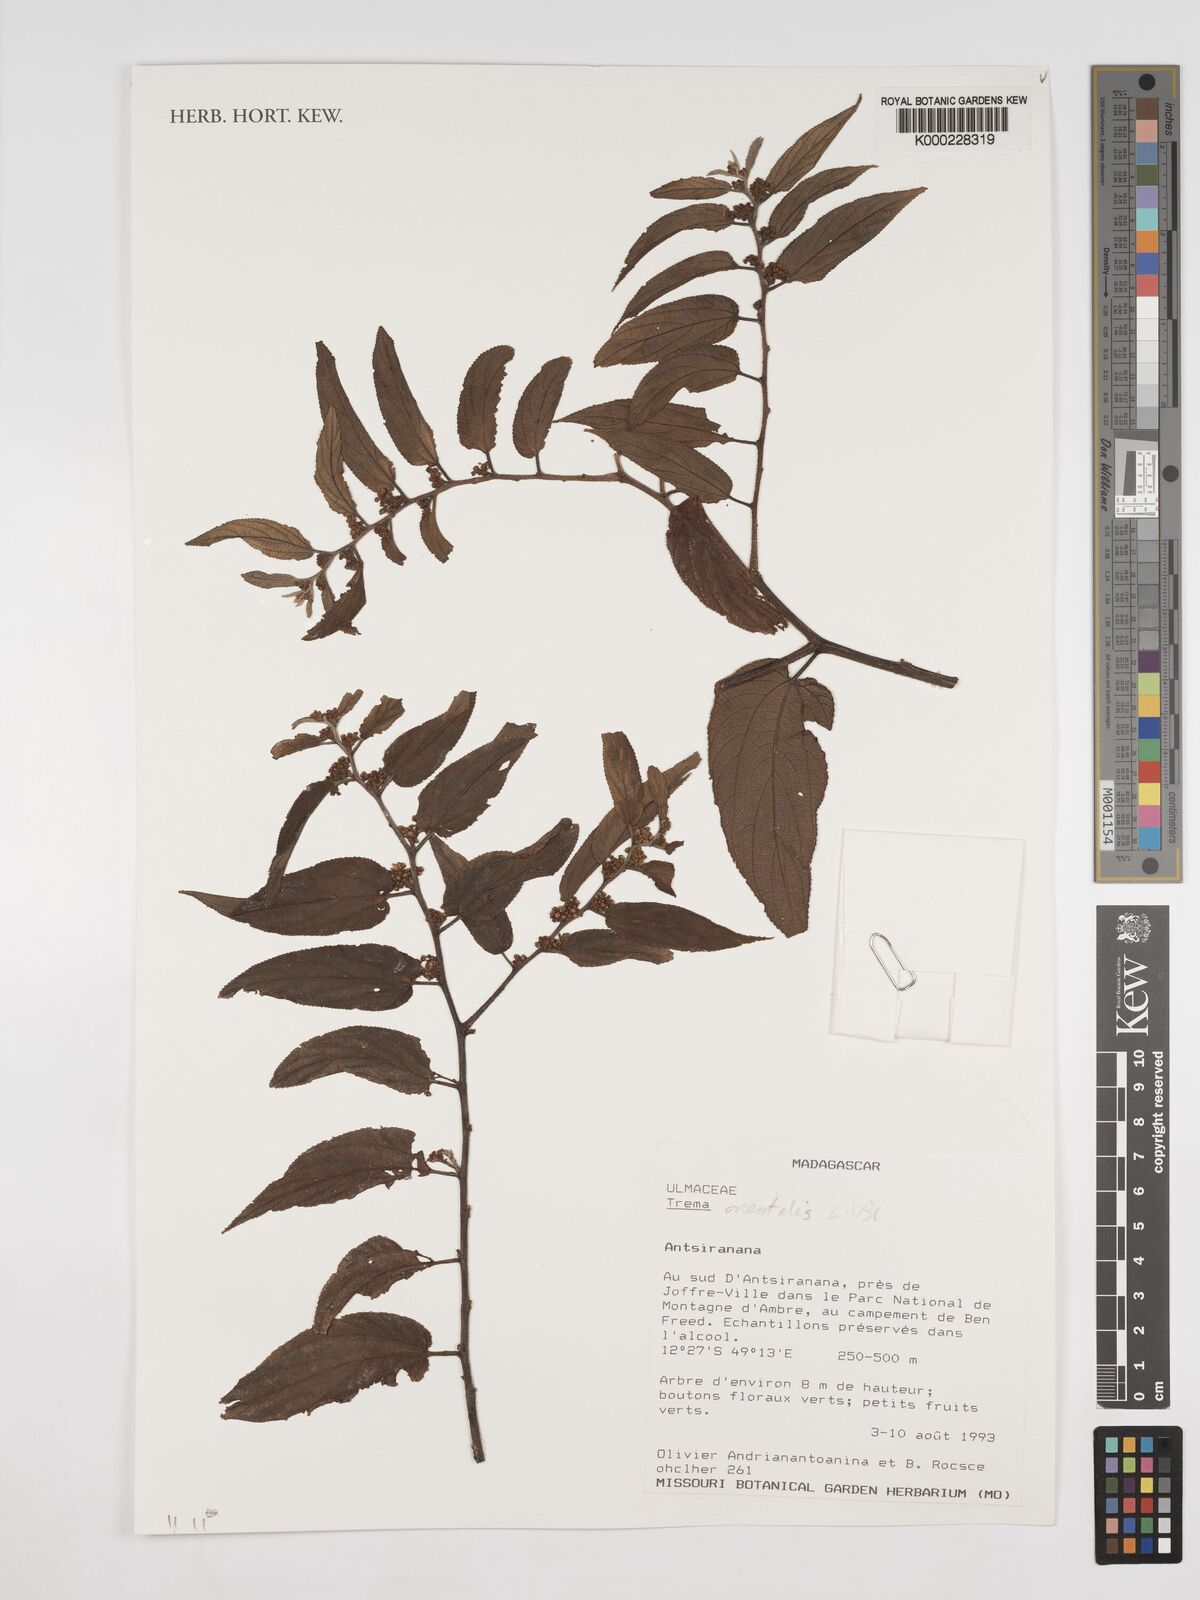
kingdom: Plantae
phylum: Tracheophyta
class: Magnoliopsida
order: Rosales
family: Cannabaceae
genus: Trema
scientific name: Trema
